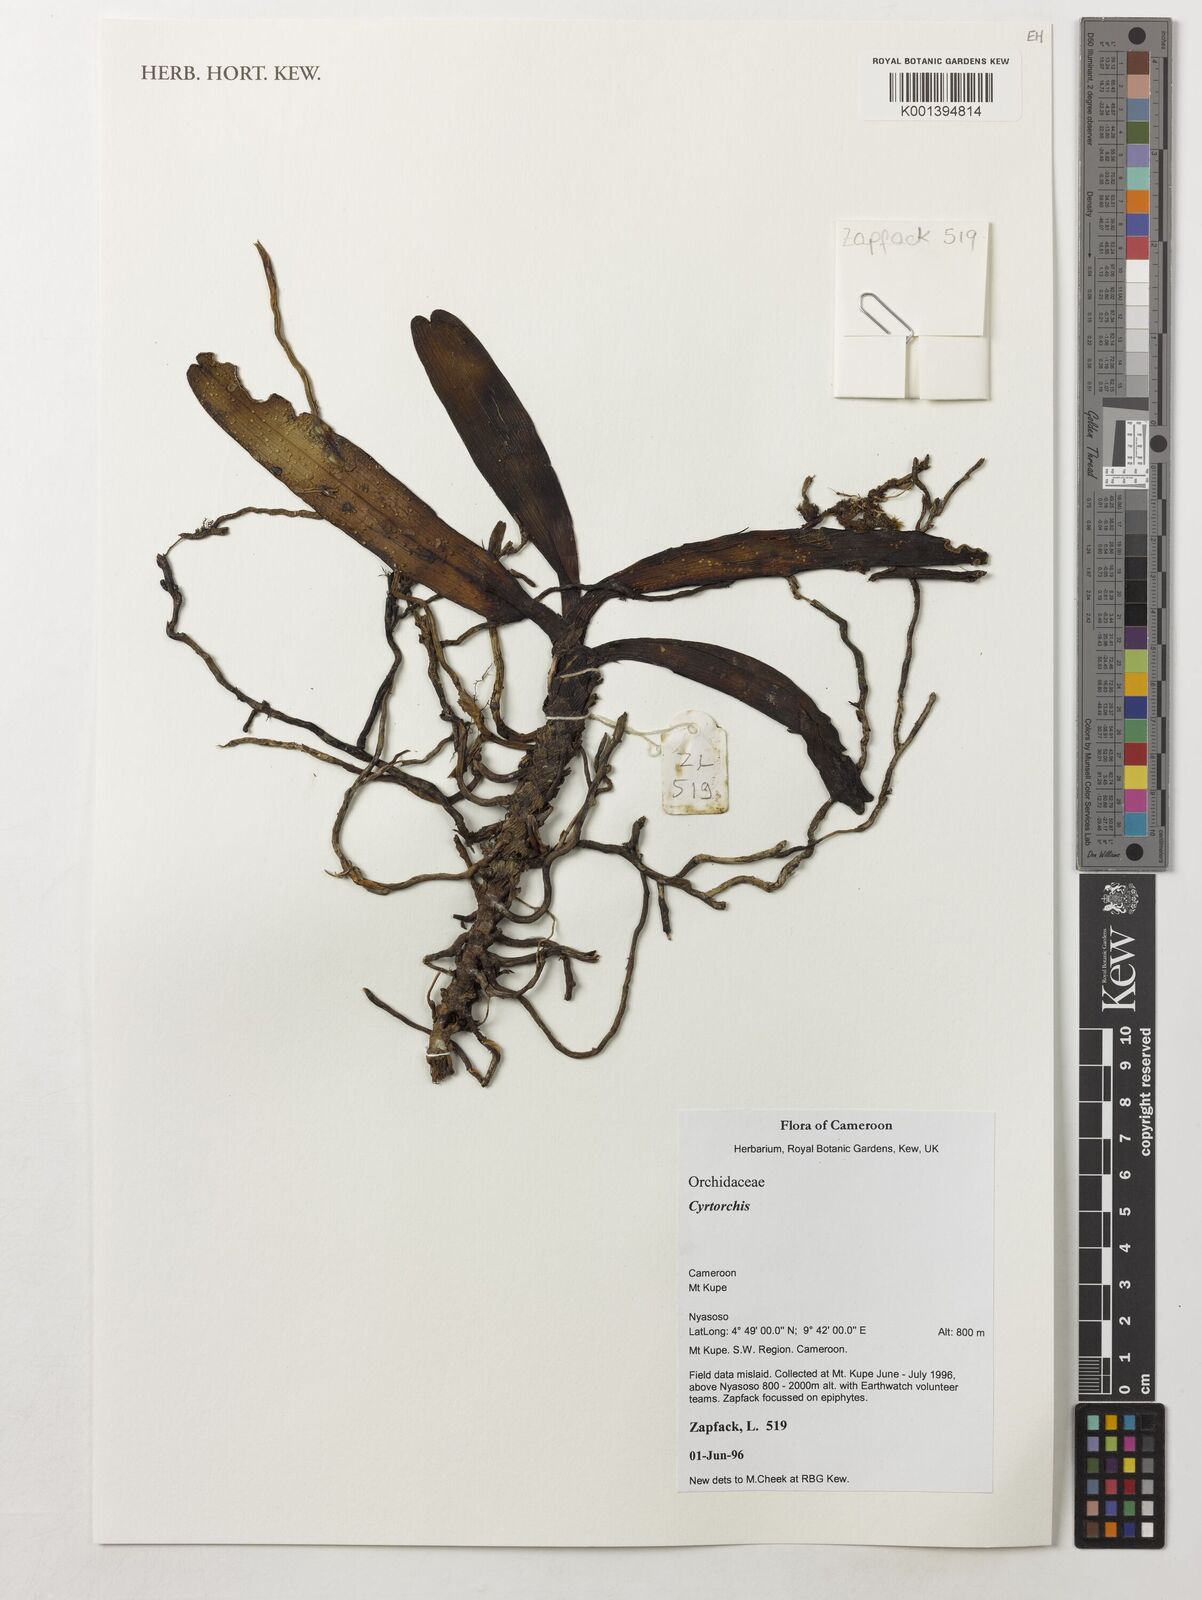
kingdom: Plantae
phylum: Tracheophyta
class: Liliopsida
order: Asparagales
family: Orchidaceae
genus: Cyrtorchis
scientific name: Cyrtorchis
